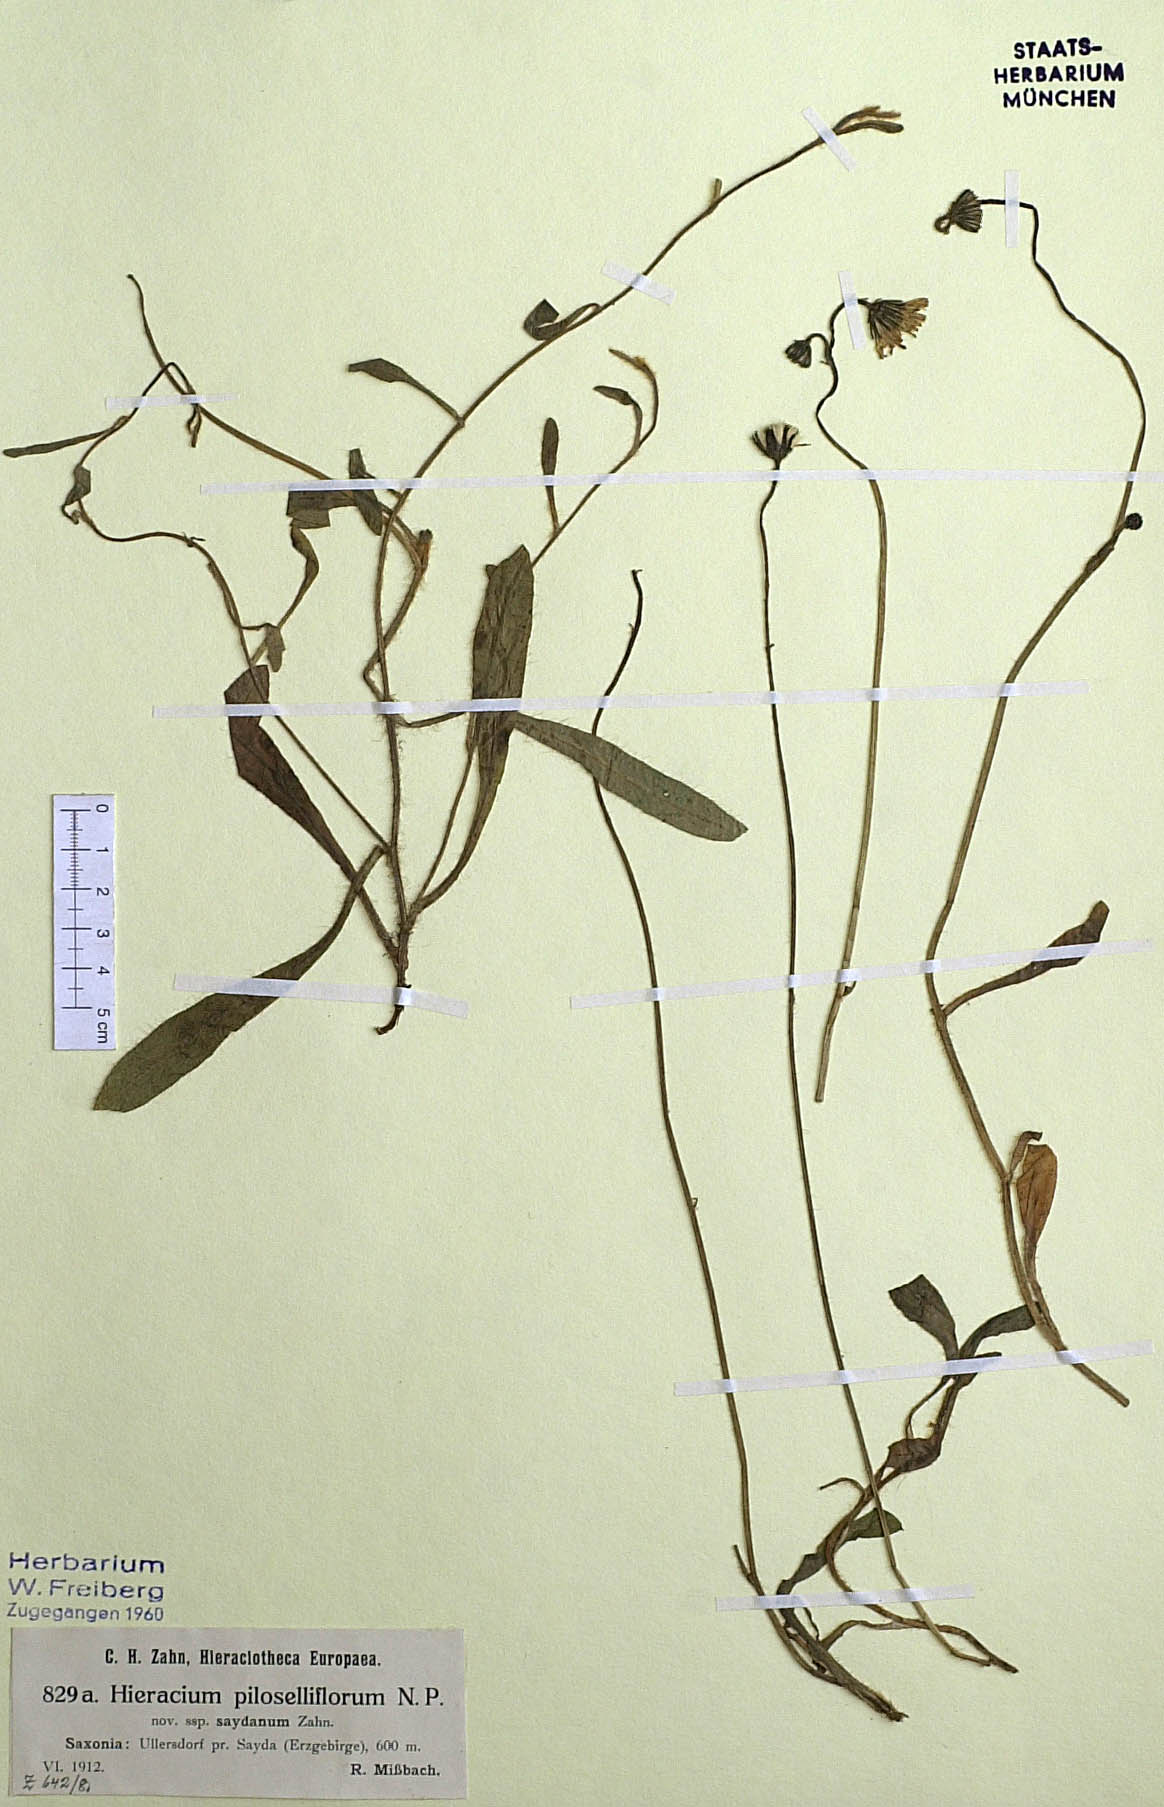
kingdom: Plantae
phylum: Tracheophyta
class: Magnoliopsida
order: Asterales
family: Asteraceae
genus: Pilosella
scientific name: Pilosella piloselliflora
